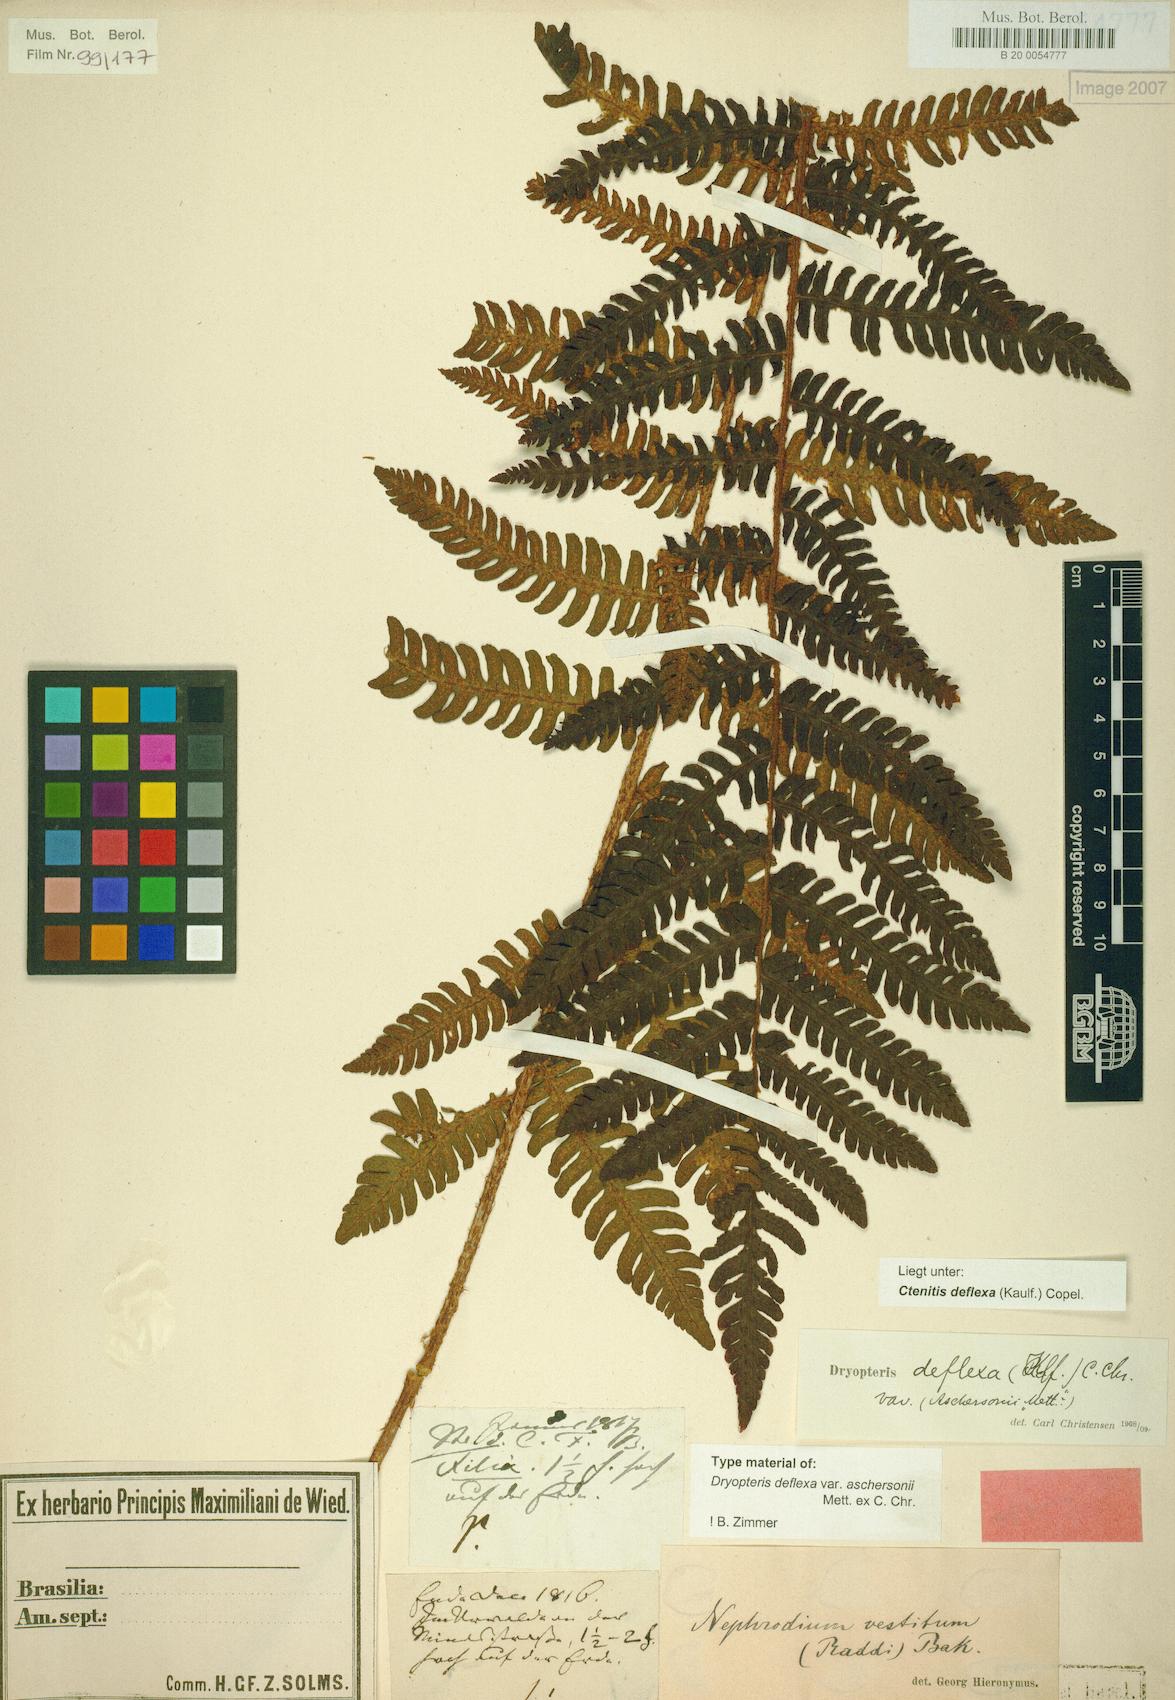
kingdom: Plantae
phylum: Tracheophyta
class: Polypodiopsida
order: Polypodiales
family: Dryopteridaceae
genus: Ctenitis
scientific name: Ctenitis deflexa
